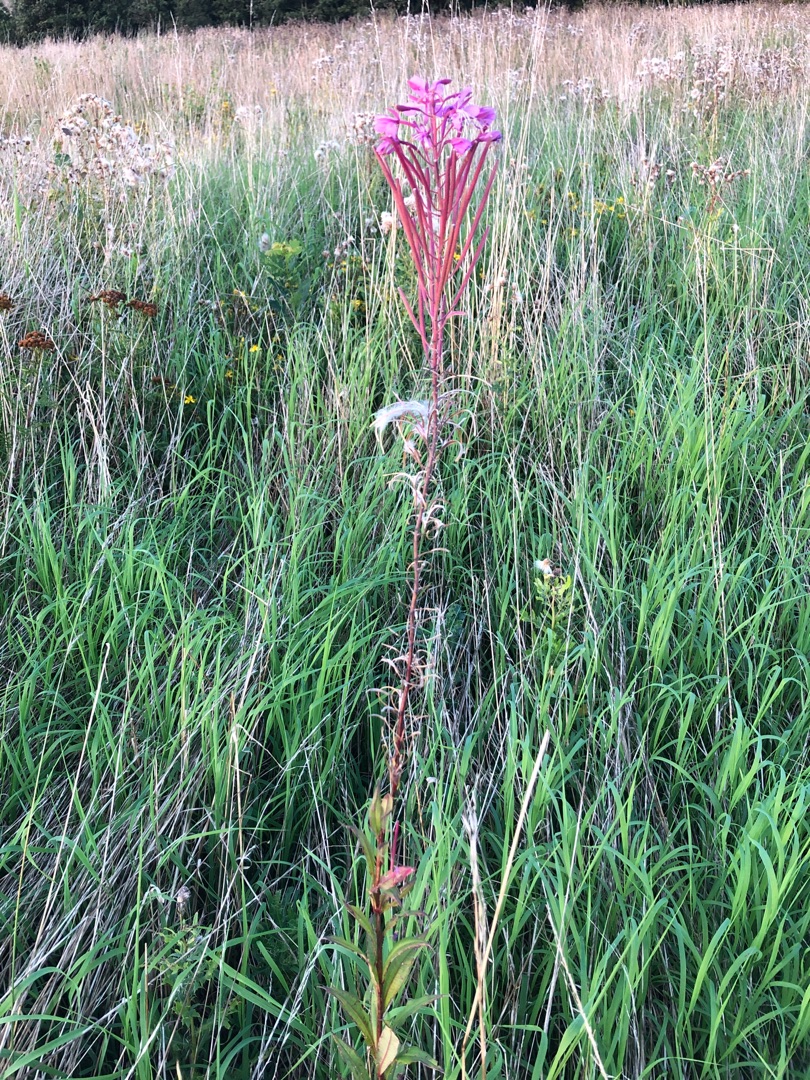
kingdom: Plantae
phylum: Tracheophyta
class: Magnoliopsida
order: Myrtales
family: Onagraceae
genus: Chamaenerion
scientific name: Chamaenerion angustifolium
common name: Gederams
